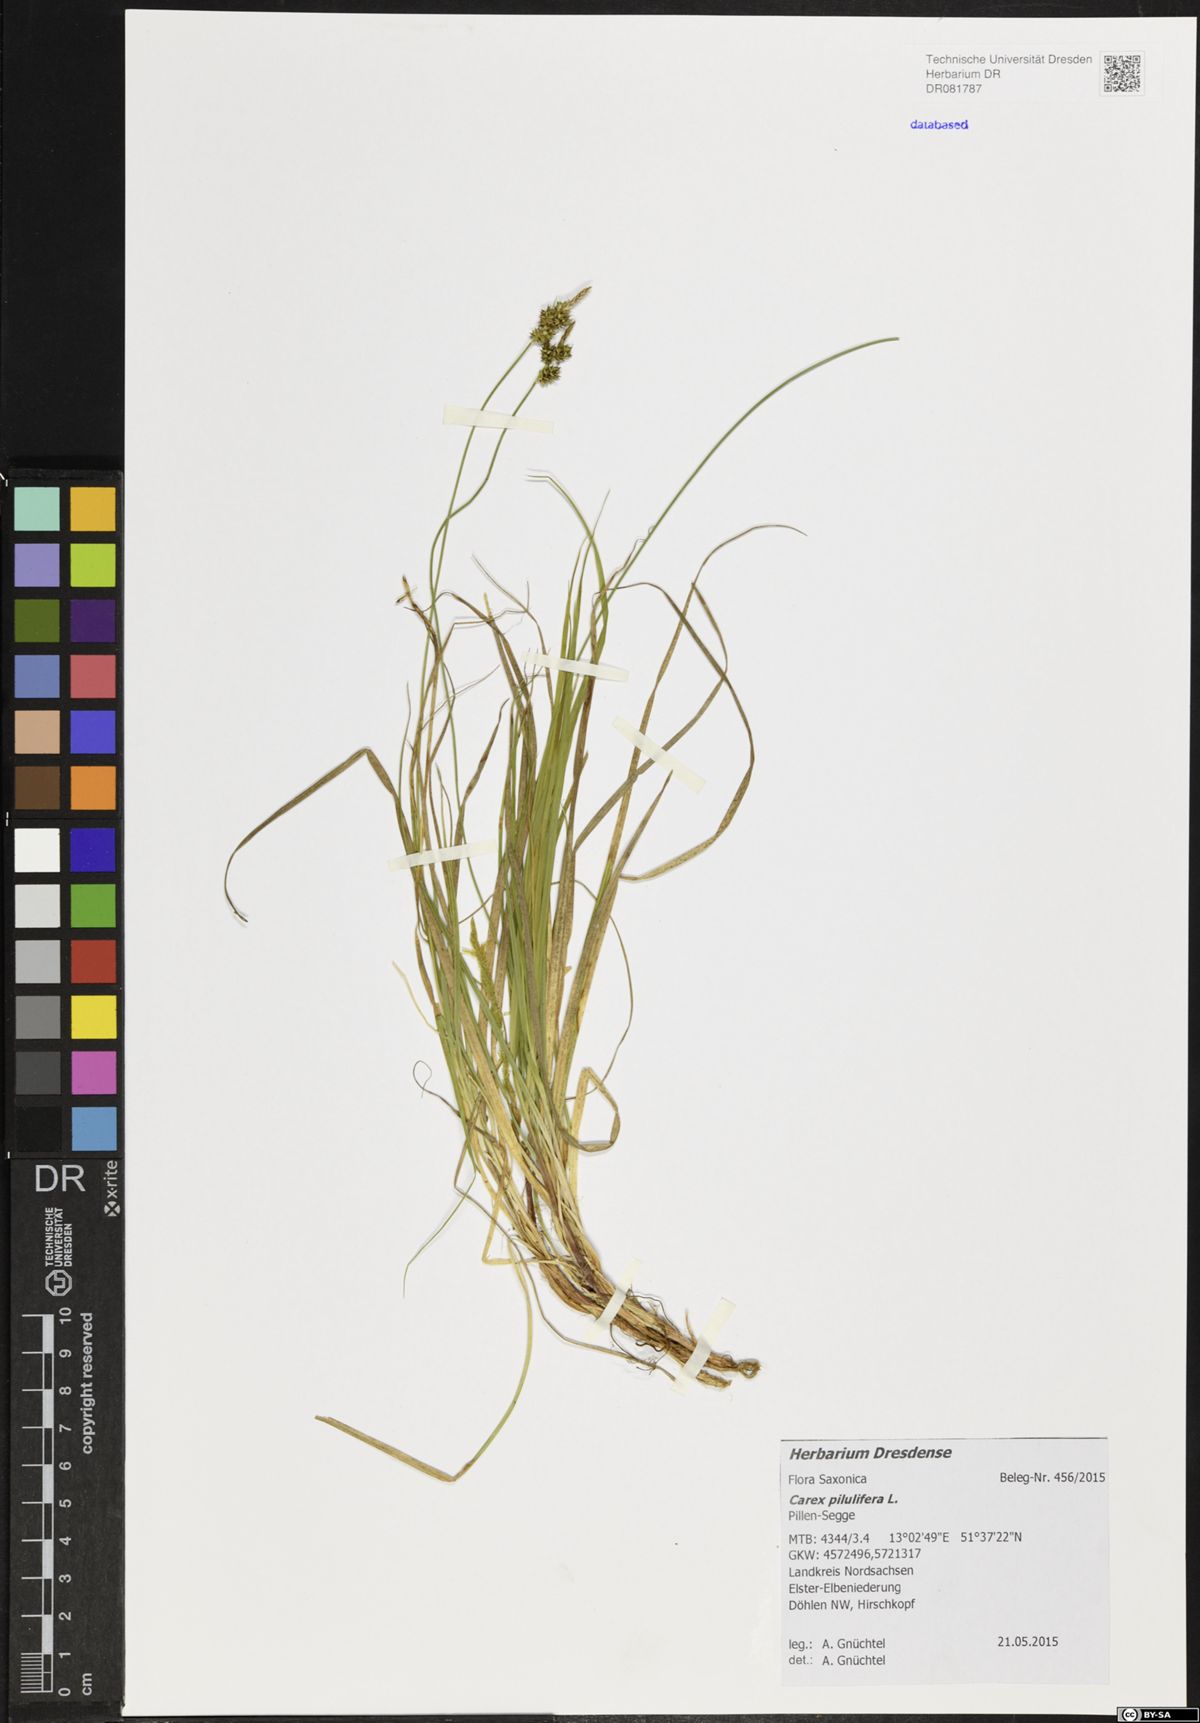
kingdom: Plantae
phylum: Tracheophyta
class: Liliopsida
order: Poales
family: Cyperaceae
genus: Carex
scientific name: Carex pilulifera
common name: Pill sedge
